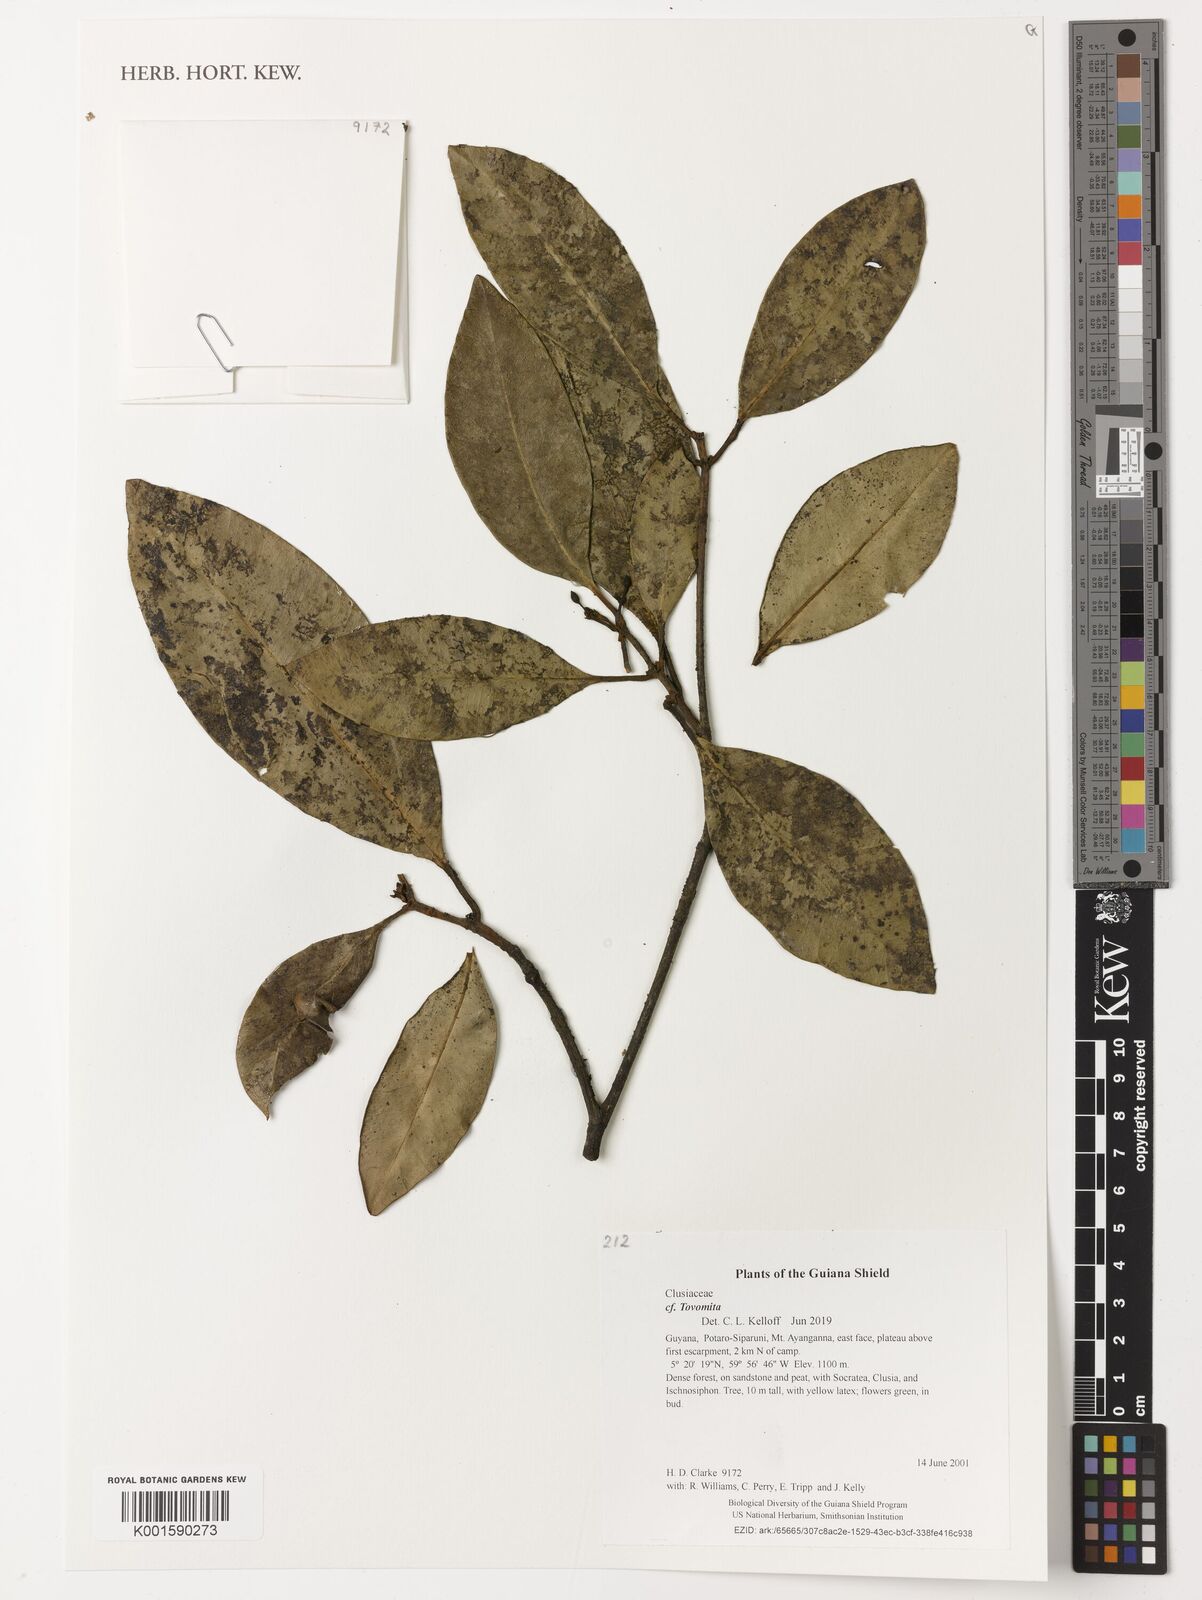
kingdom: Plantae
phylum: Tracheophyta
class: Magnoliopsida
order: Malpighiales
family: Clusiaceae
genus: Tovomita
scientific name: Tovomita
